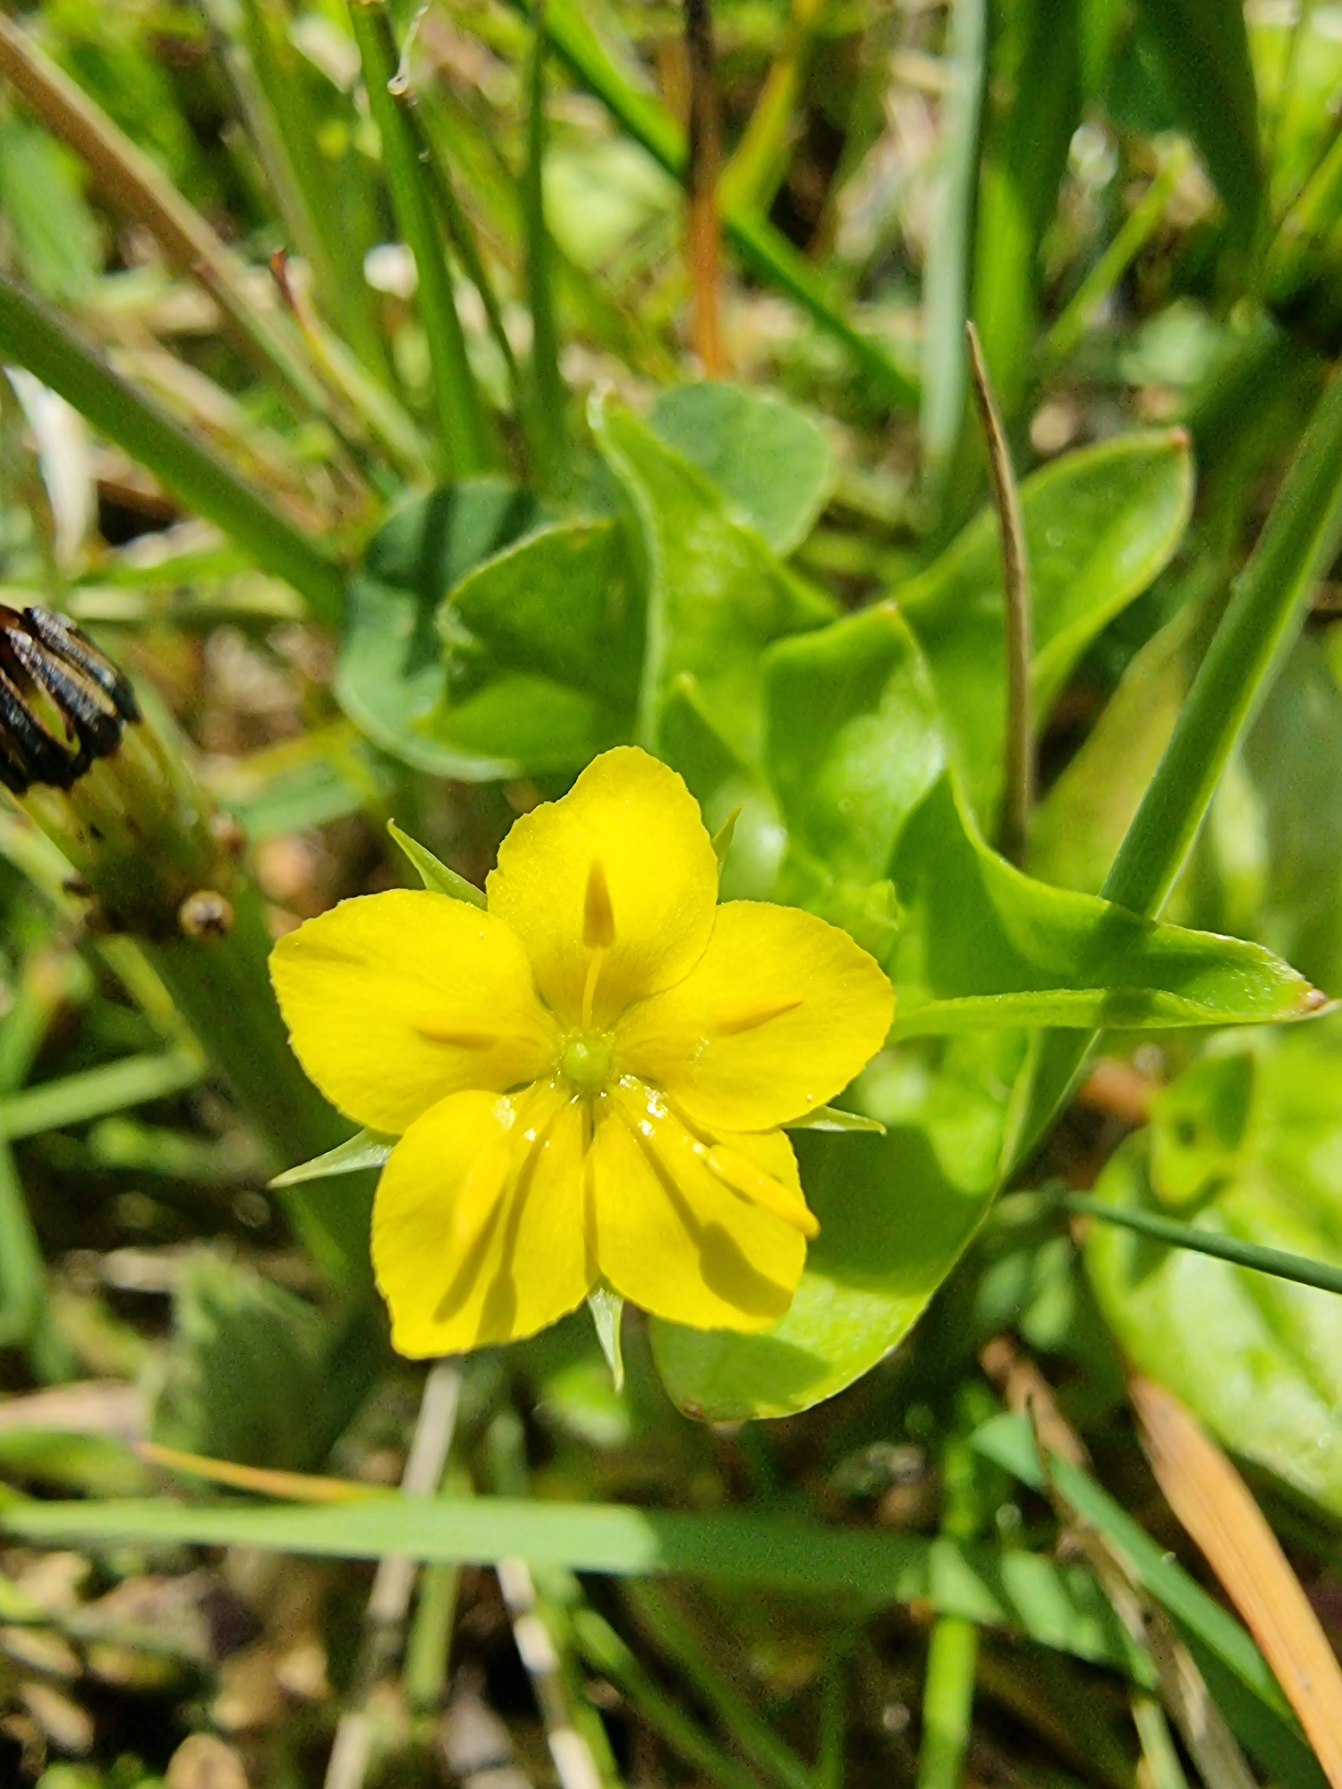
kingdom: Plantae
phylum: Tracheophyta
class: Magnoliopsida
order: Ericales
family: Primulaceae
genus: Lysimachia
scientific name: Lysimachia nemorum
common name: Lund-fredløs
